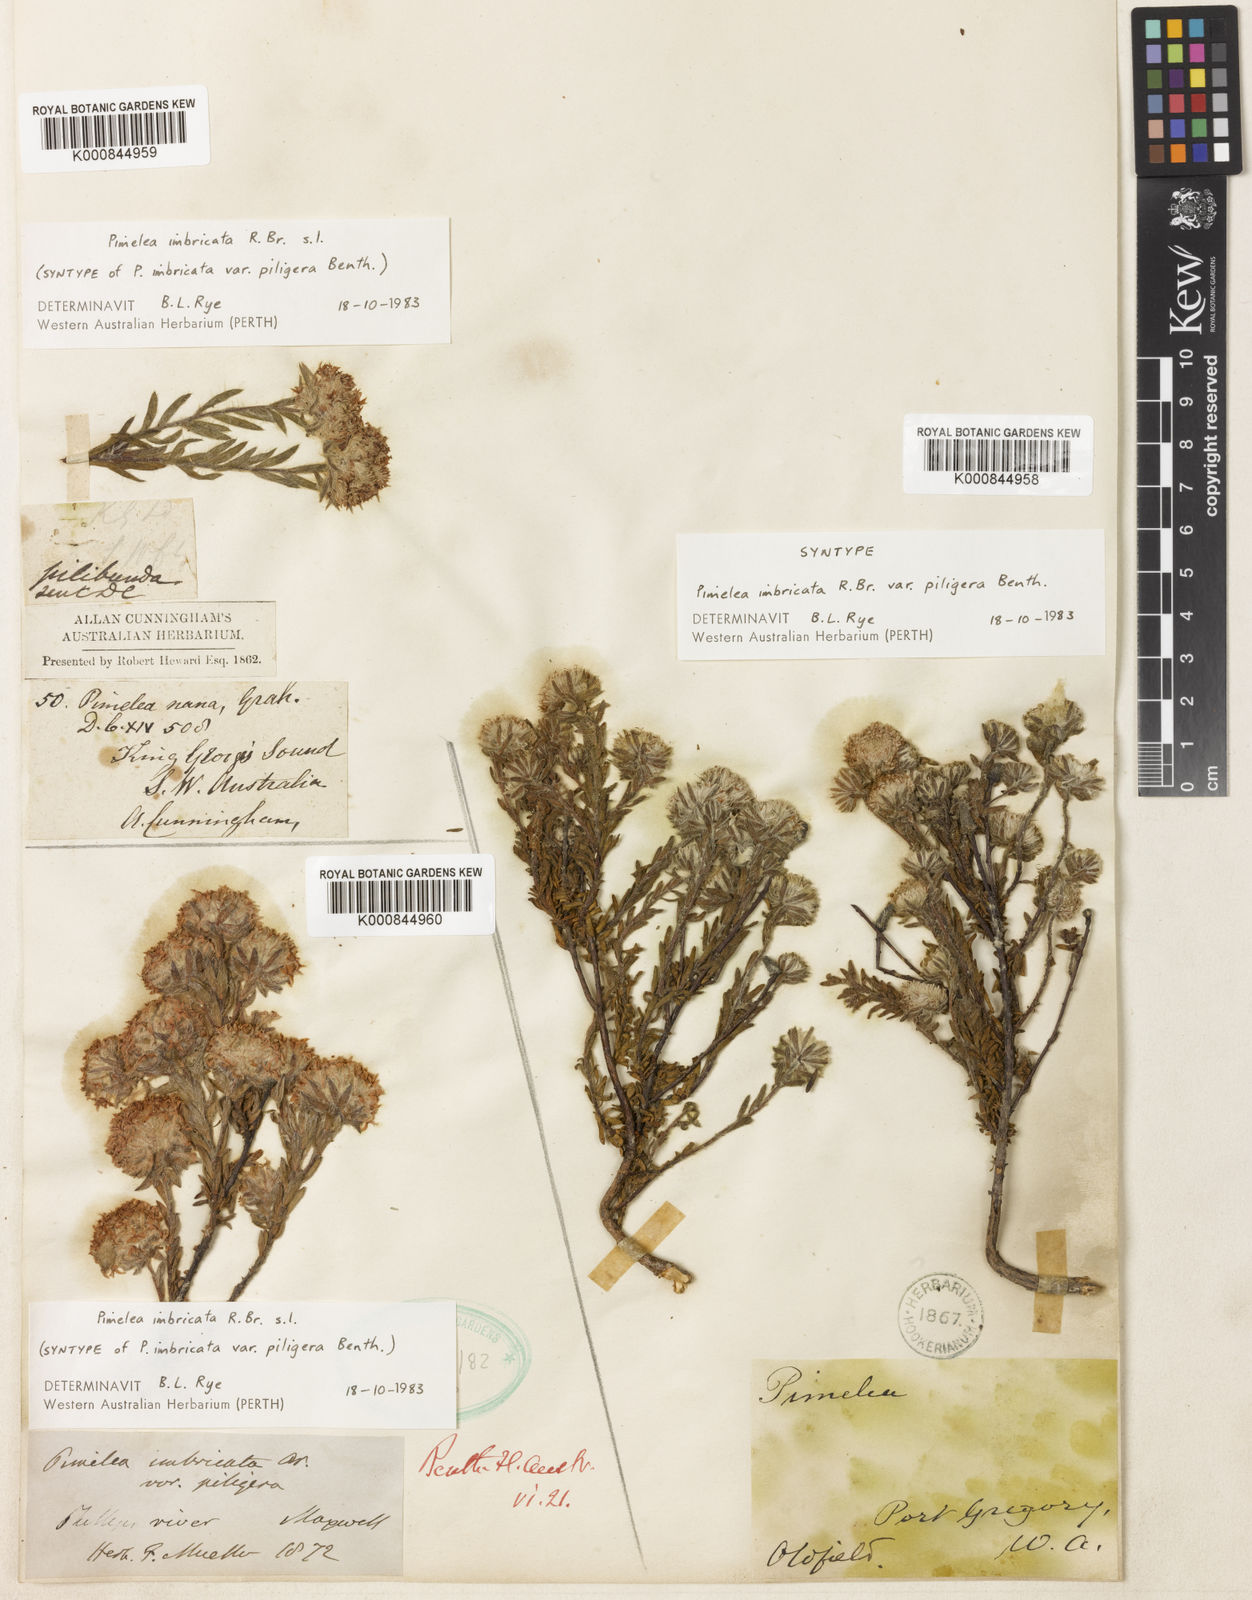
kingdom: Plantae
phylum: Tracheophyta
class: Magnoliopsida
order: Malvales
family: Thymelaeaceae
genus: Pimelea
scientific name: Pimelea imbricata
